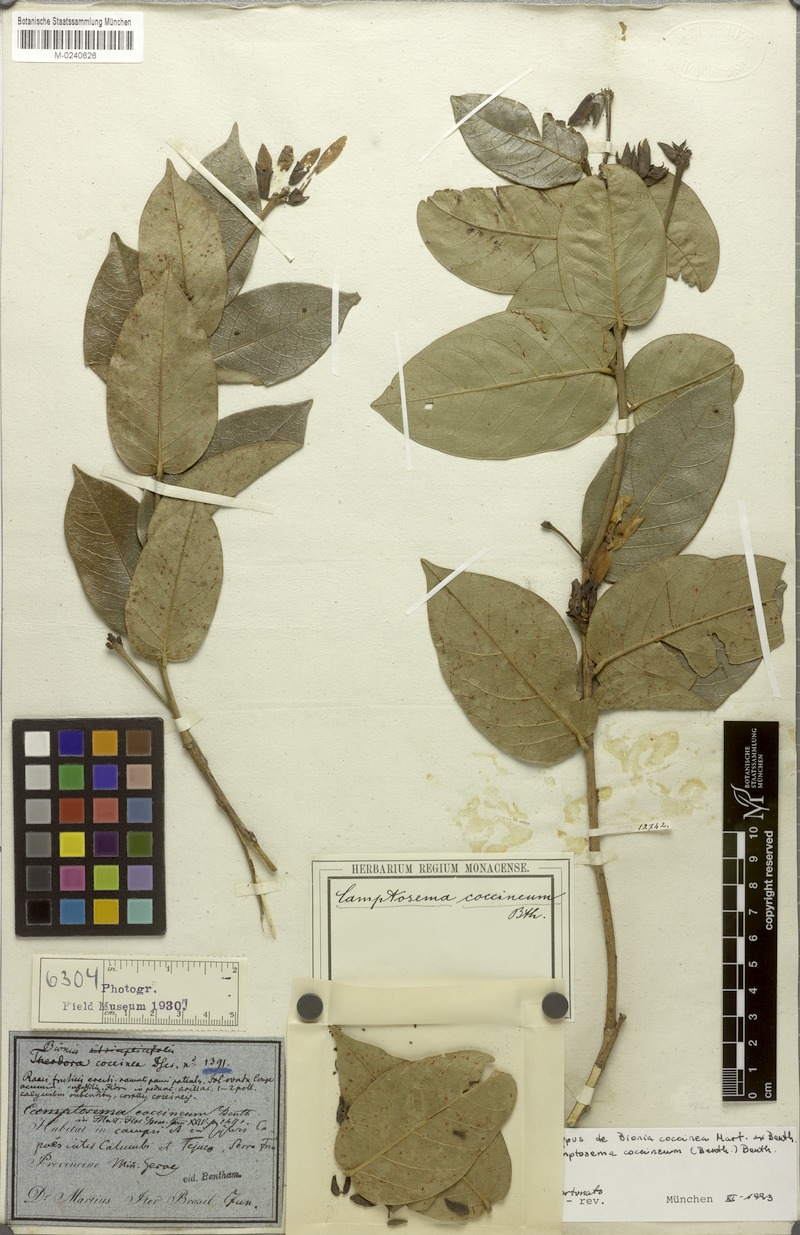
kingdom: Plantae
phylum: Tracheophyta
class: Magnoliopsida
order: Fabales
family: Fabaceae
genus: Camptosema
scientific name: Camptosema coccineum
